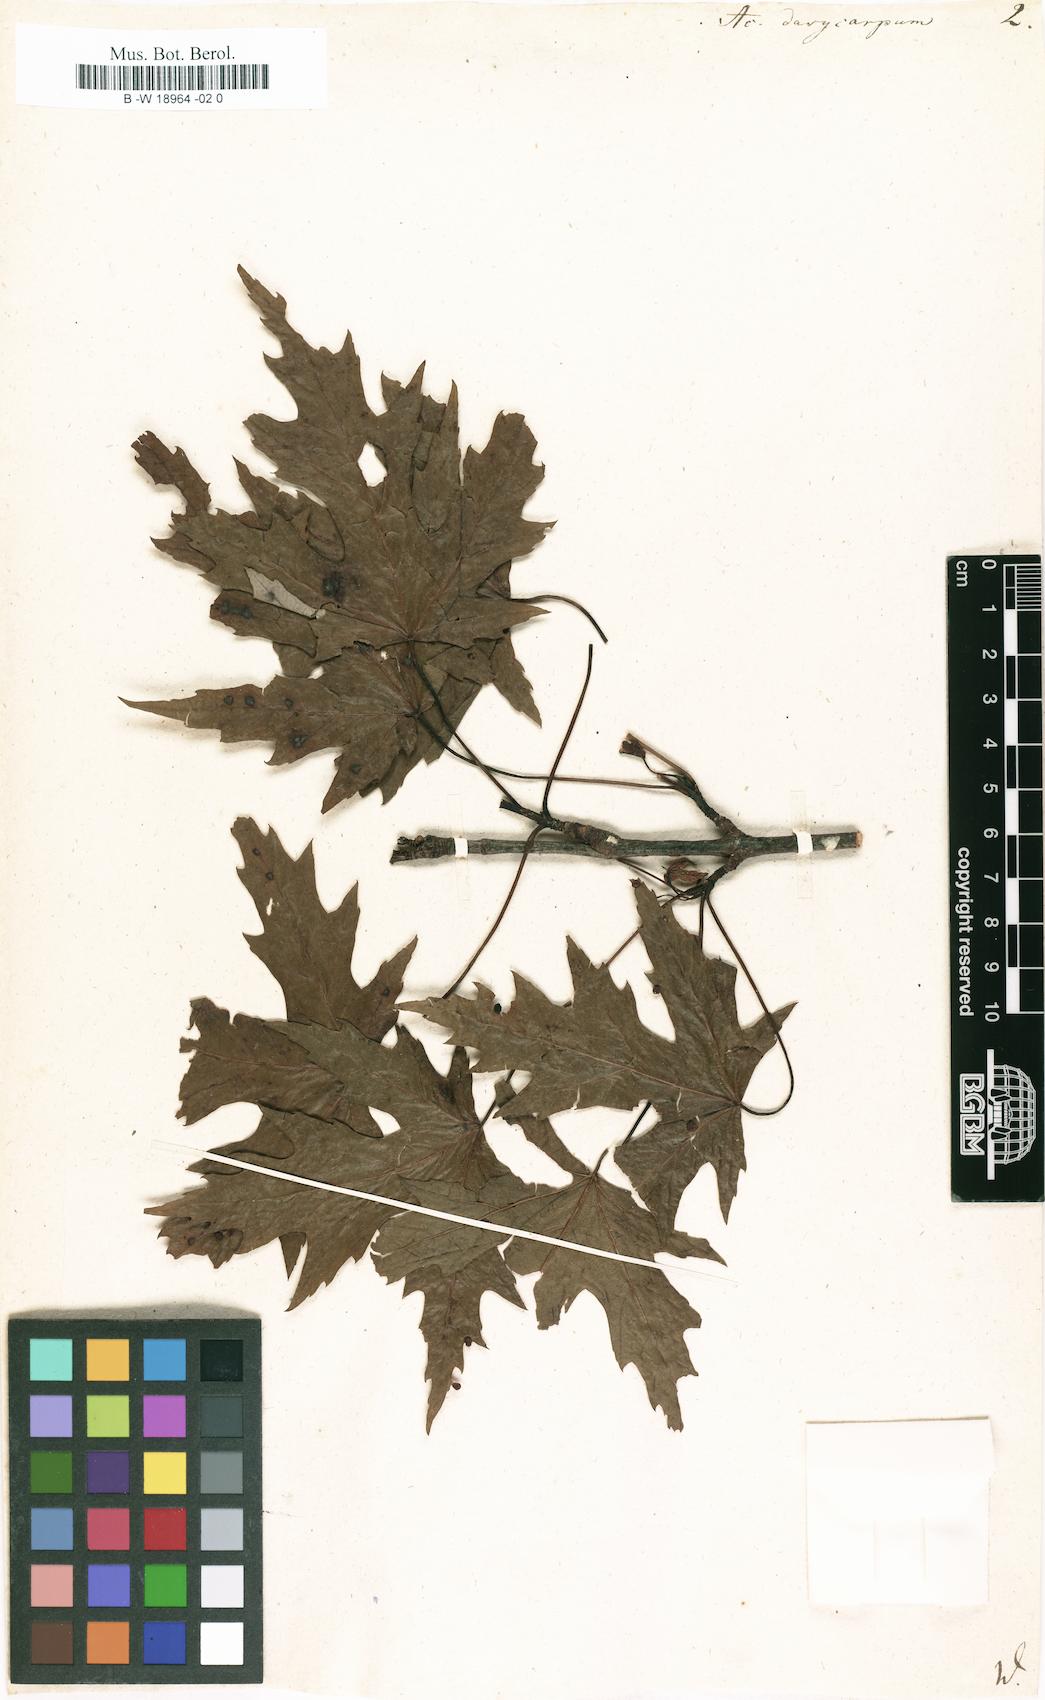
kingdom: Plantae
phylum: Tracheophyta
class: Magnoliopsida
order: Sapindales
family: Sapindaceae
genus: Acer
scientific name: Acer saccharinum
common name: Silver maple
